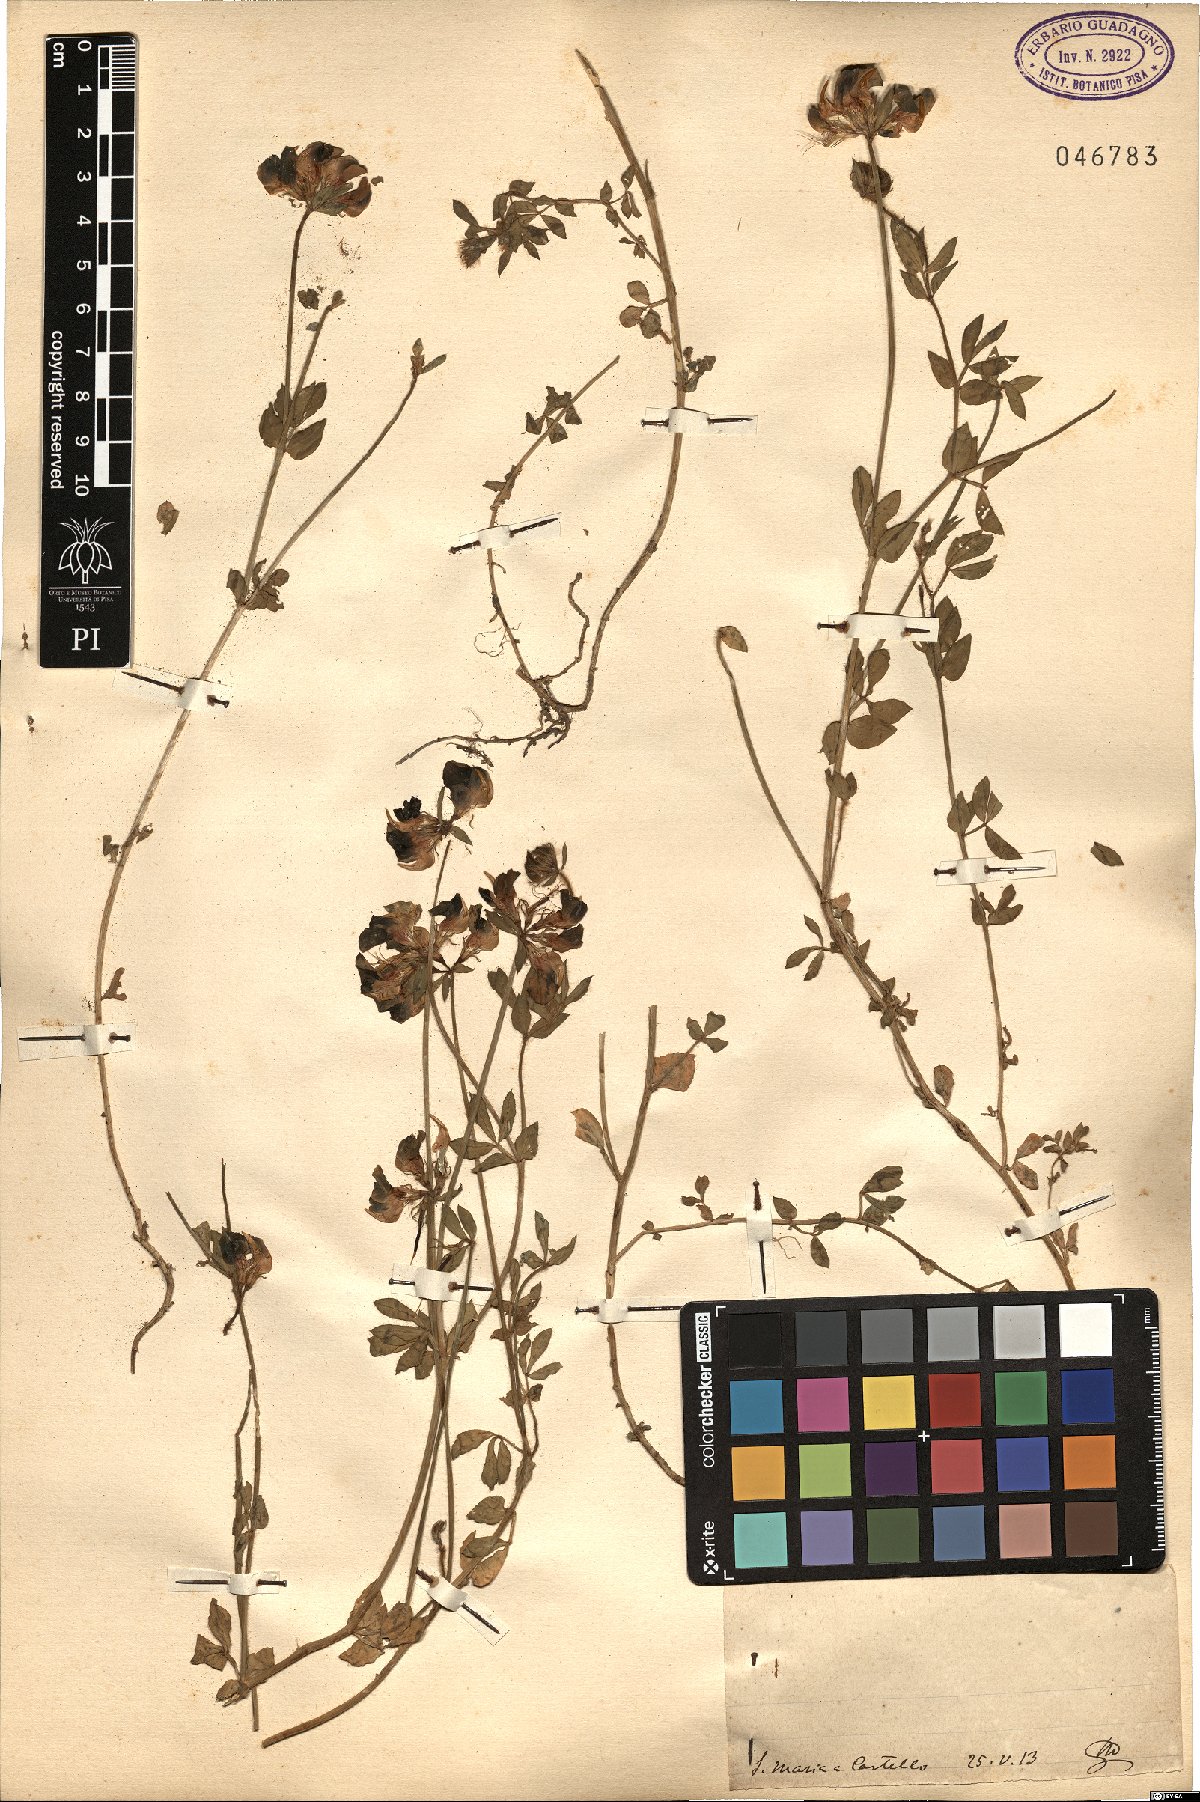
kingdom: Plantae
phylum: Tracheophyta
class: Magnoliopsida
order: Fabales
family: Fabaceae
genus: Lotus
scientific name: Lotus
